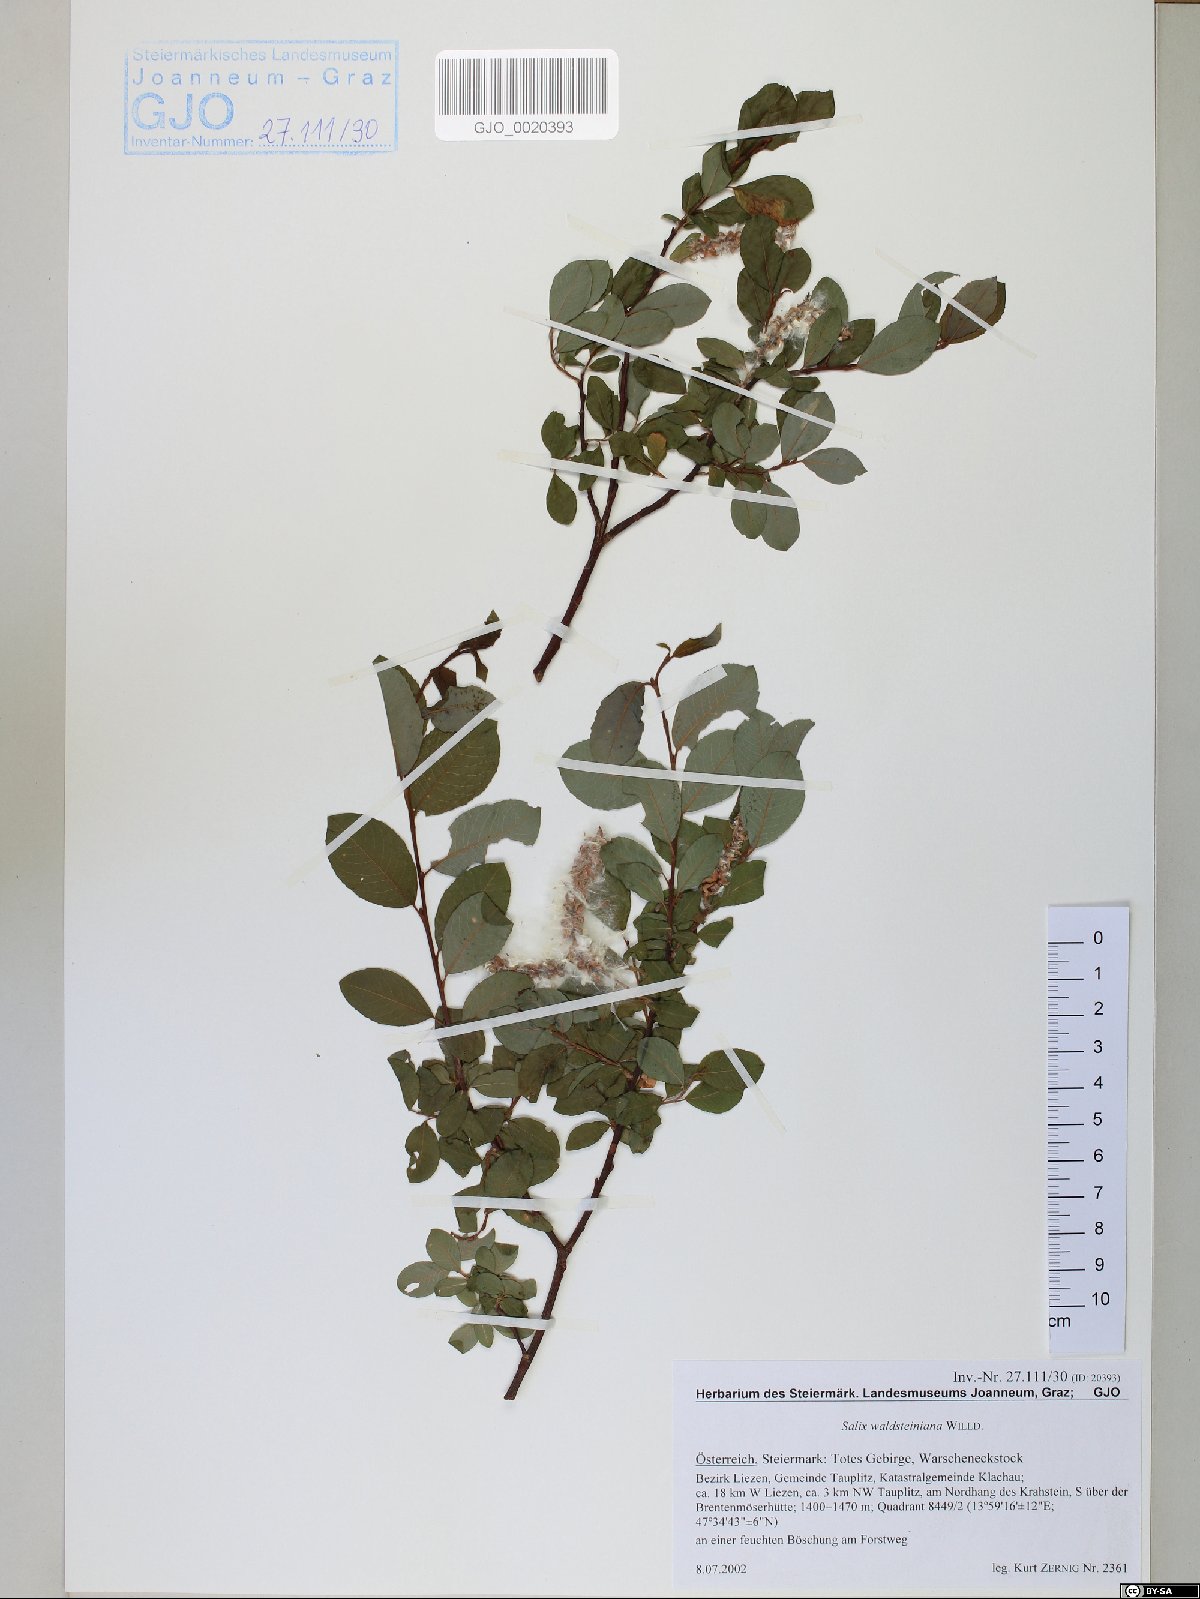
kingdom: Plantae
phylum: Tracheophyta
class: Magnoliopsida
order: Malpighiales
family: Salicaceae
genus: Salix
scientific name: Salix waldsteiniana
